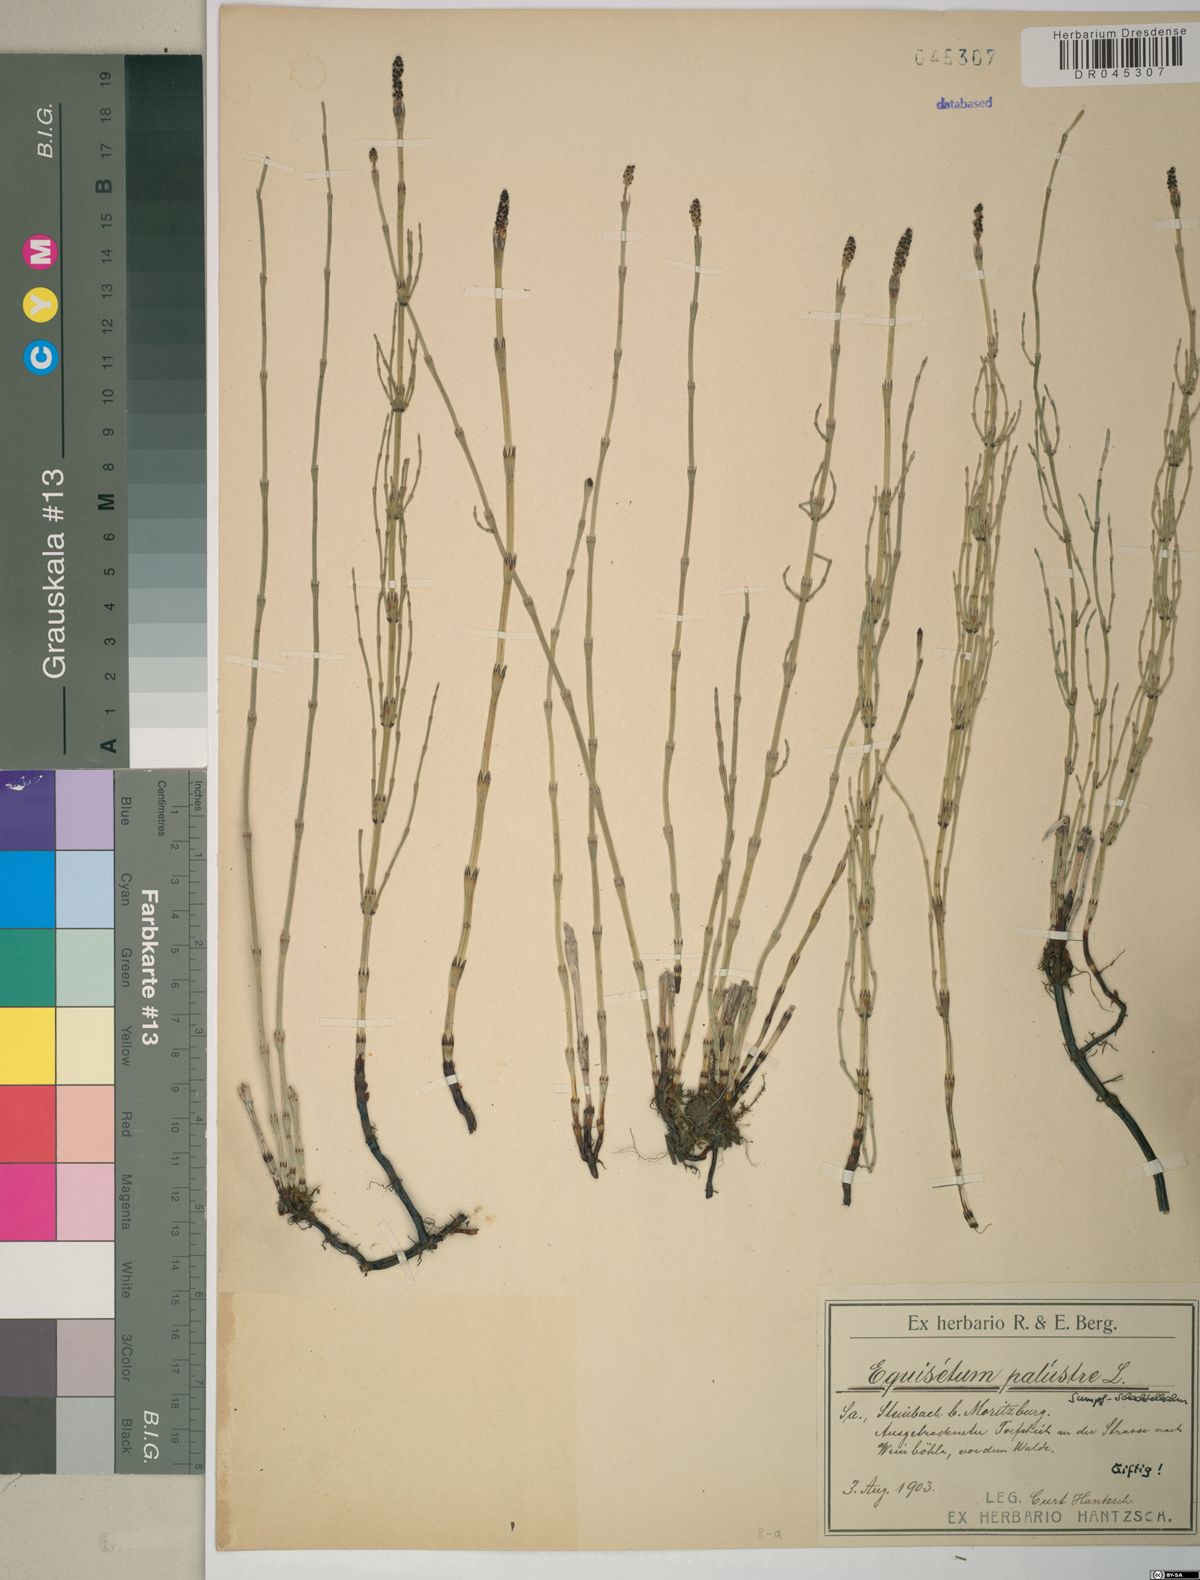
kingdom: Plantae
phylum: Tracheophyta
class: Polypodiopsida
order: Equisetales
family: Equisetaceae
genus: Equisetum
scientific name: Equisetum palustre
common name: Marsh horsetail
